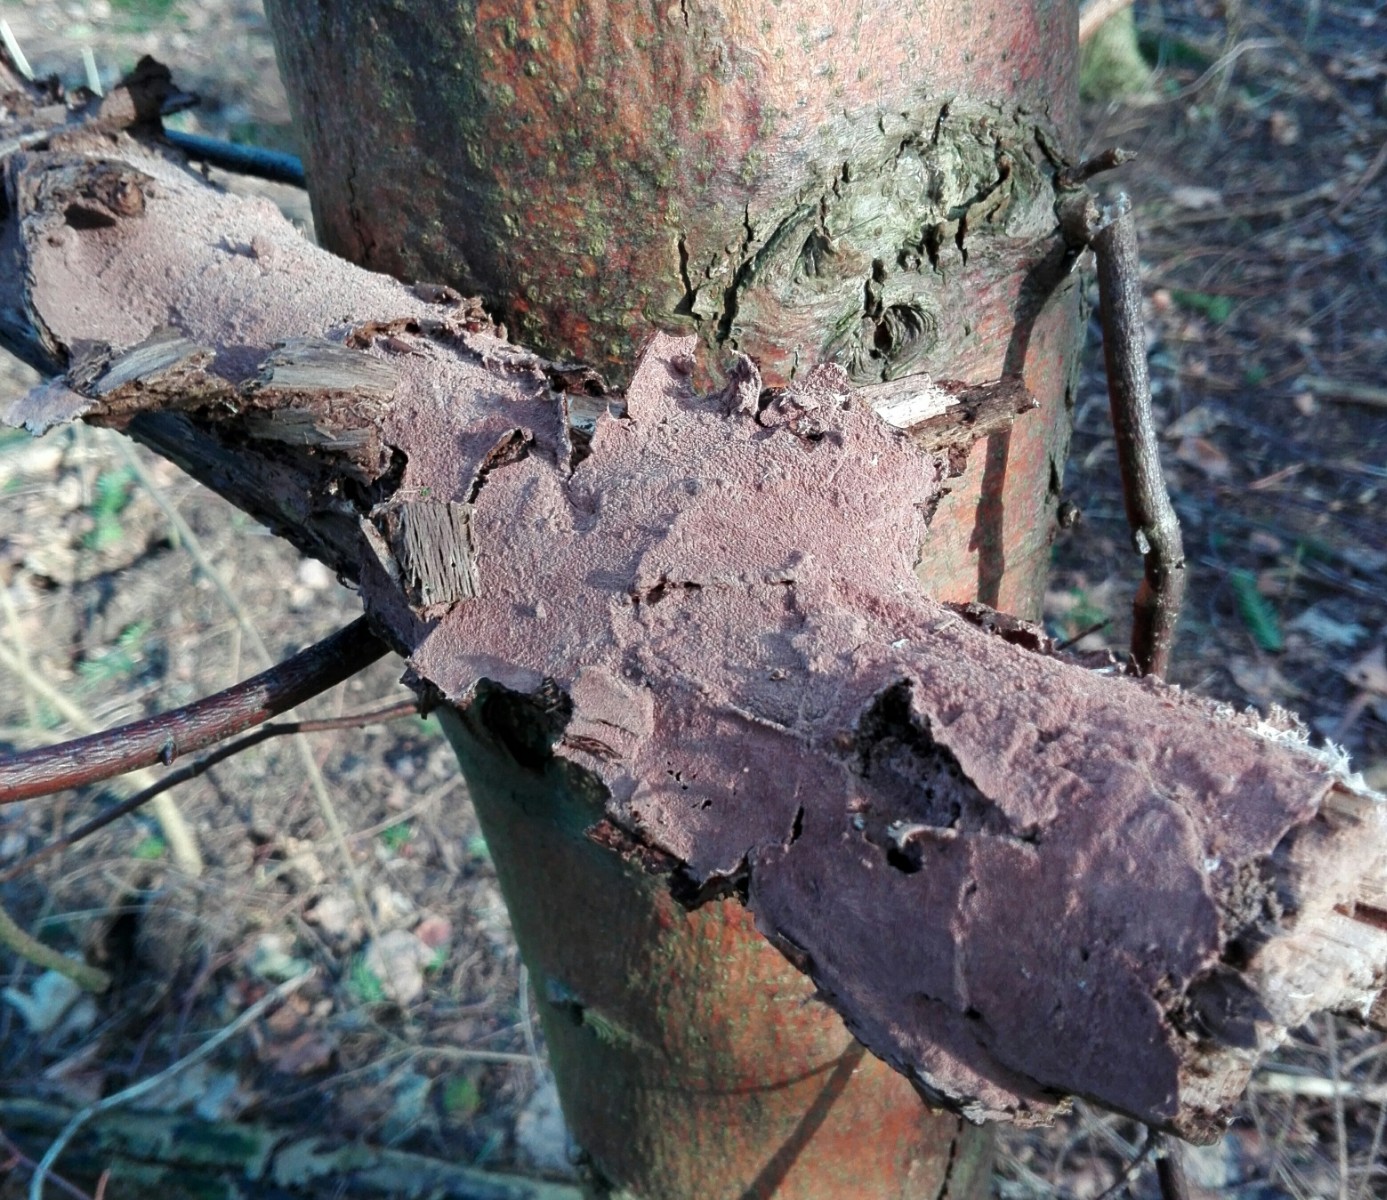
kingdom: Fungi
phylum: Basidiomycota
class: Agaricomycetes
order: Russulales
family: Peniophoraceae
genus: Peniophora
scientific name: Peniophora rufomarginata
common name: linde-voksskind
